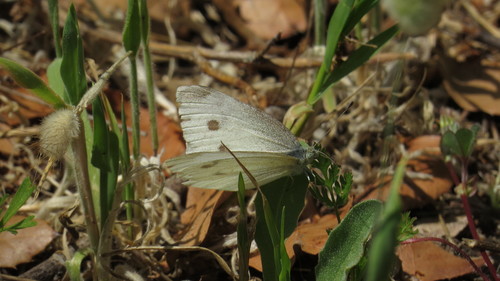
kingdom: Animalia
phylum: Arthropoda
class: Insecta
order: Lepidoptera
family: Pieridae
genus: Pieris
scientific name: Pieris rapae
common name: Small white
